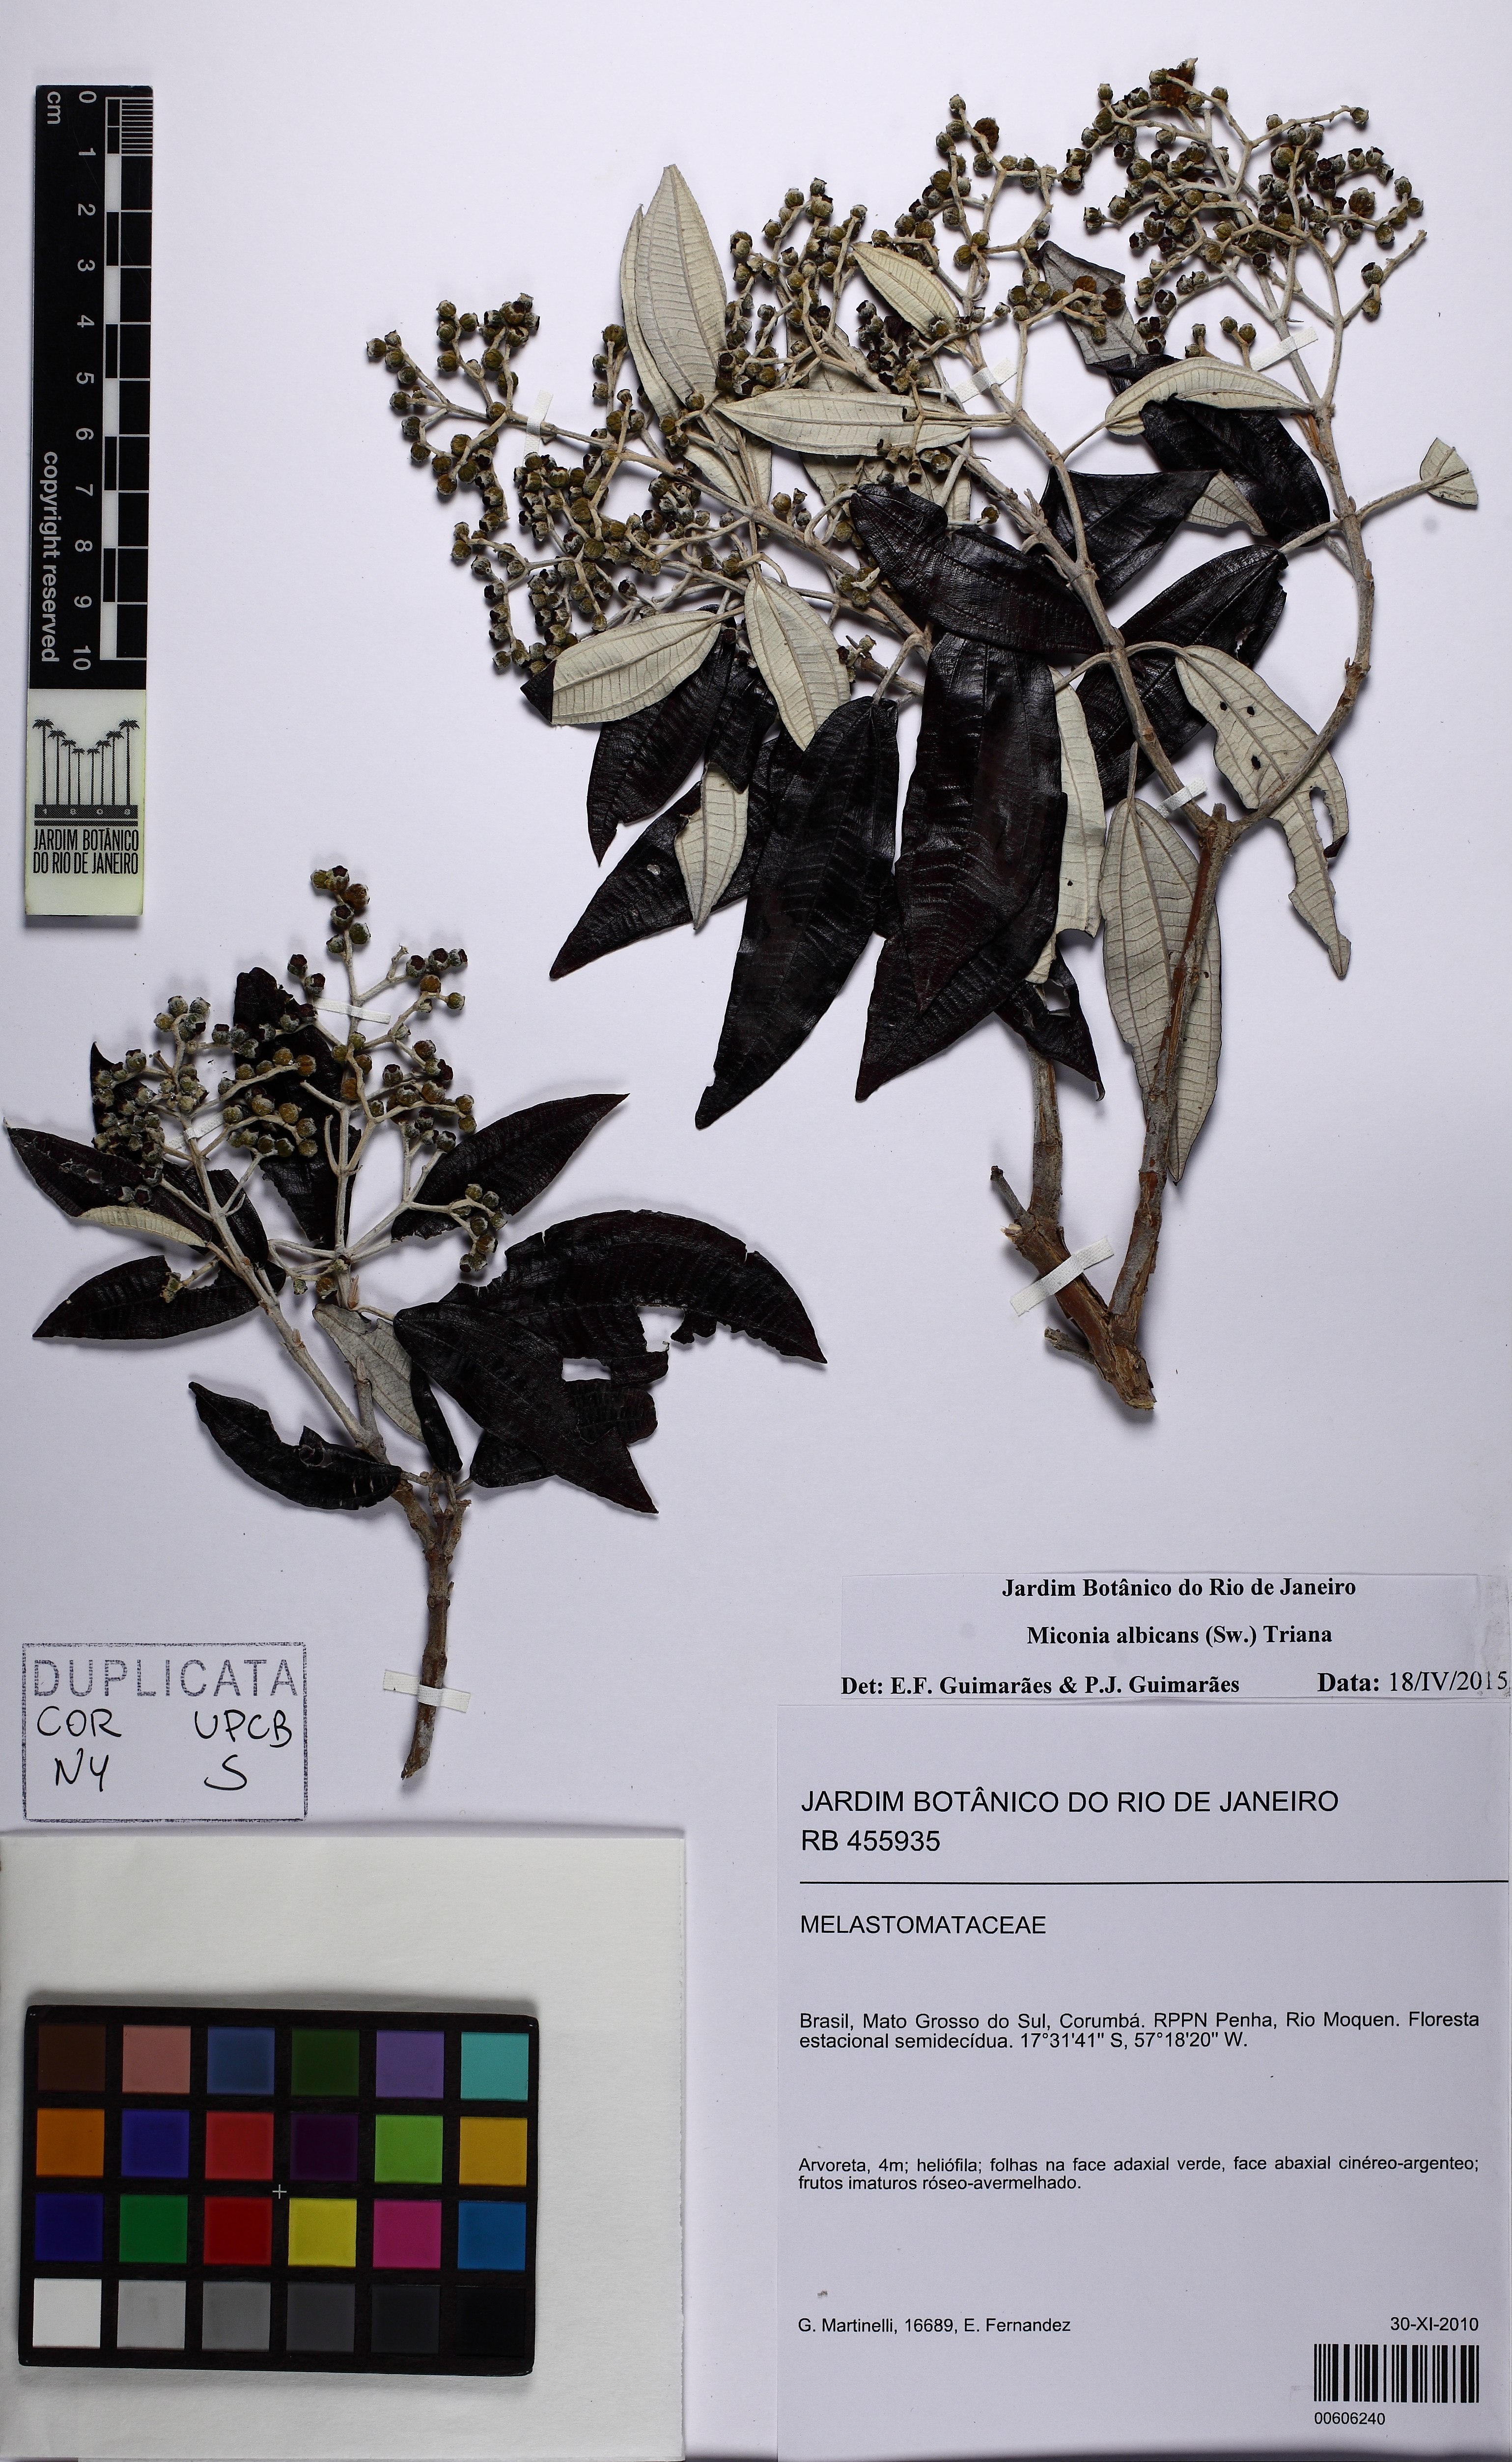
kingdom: Plantae
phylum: Tracheophyta
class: Magnoliopsida
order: Myrtales
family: Melastomataceae
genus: Miconia
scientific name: Miconia albicans
